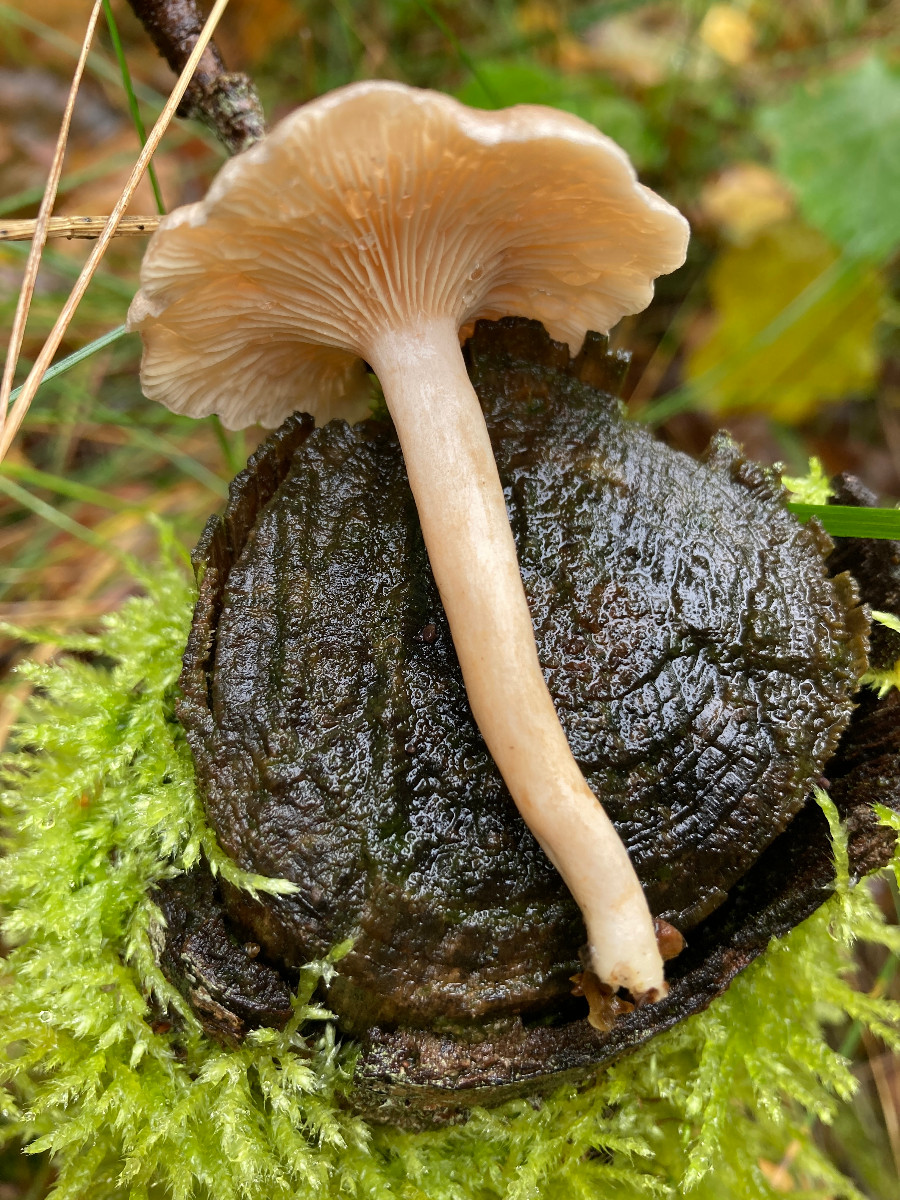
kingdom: Fungi
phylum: Basidiomycota
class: Agaricomycetes
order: Agaricales
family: Tricholomataceae
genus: Clitocybe
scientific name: Clitocybe
